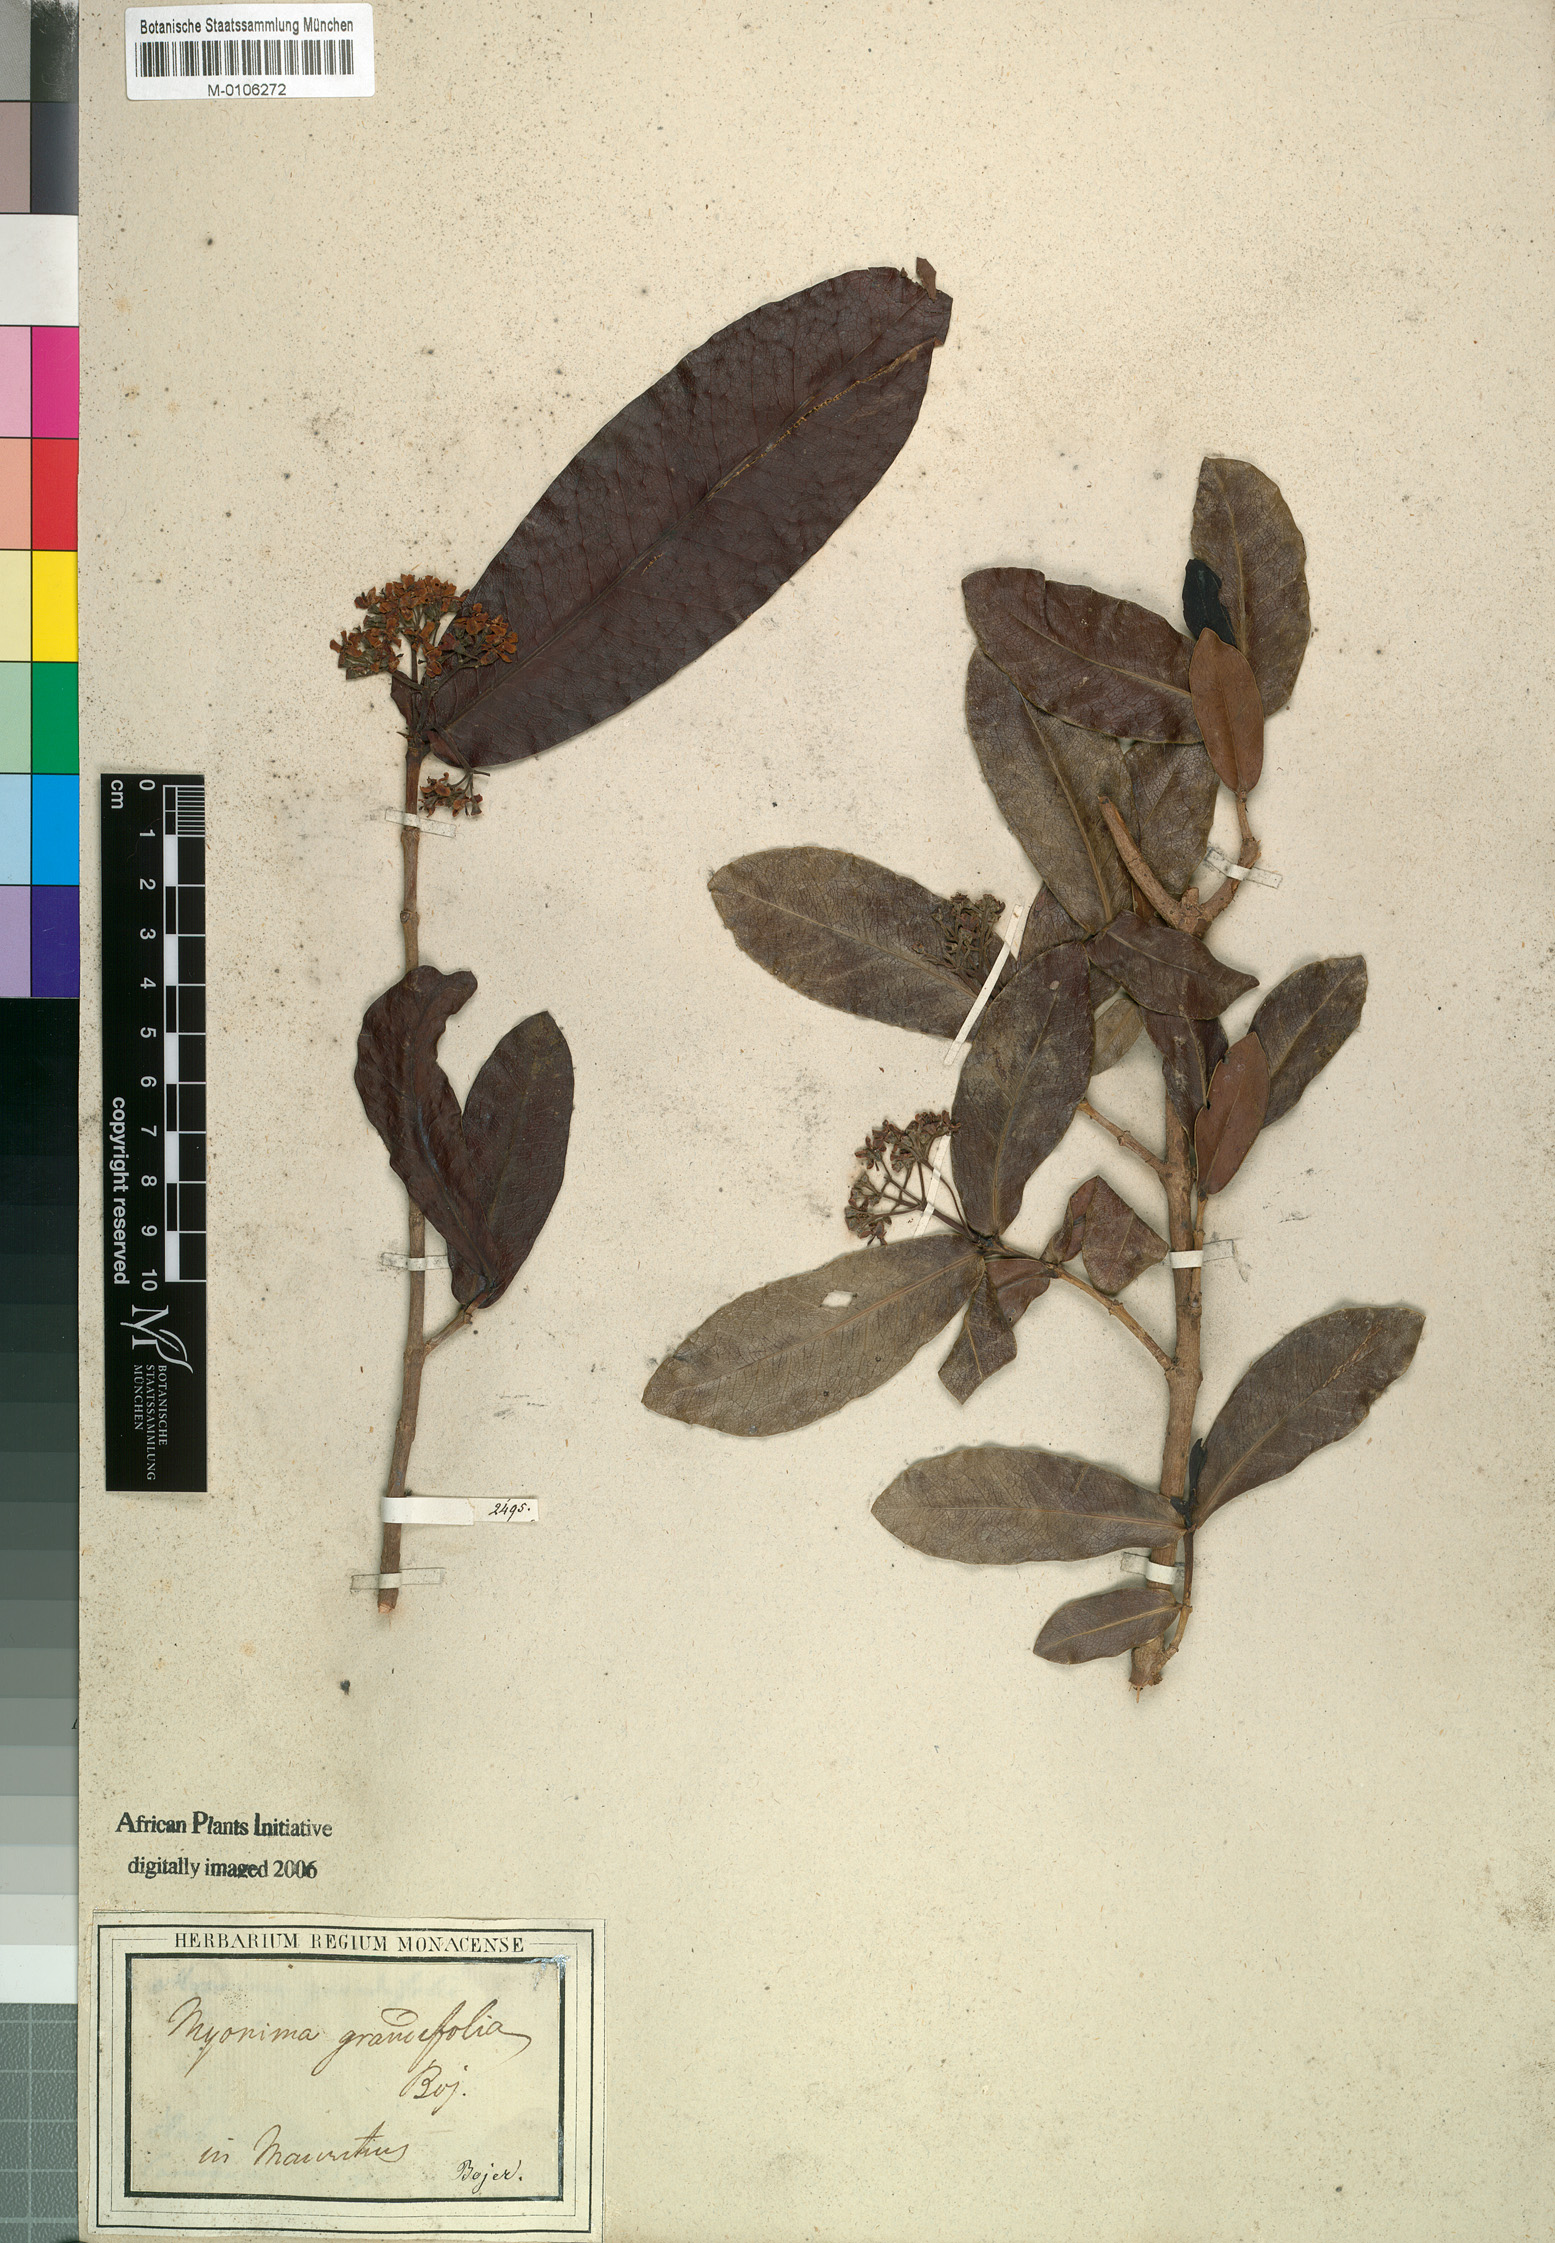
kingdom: Plantae
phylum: Tracheophyta
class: Magnoliopsida
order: Gentianales
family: Rubiaceae
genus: Ixora
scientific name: Ixora parviflora
